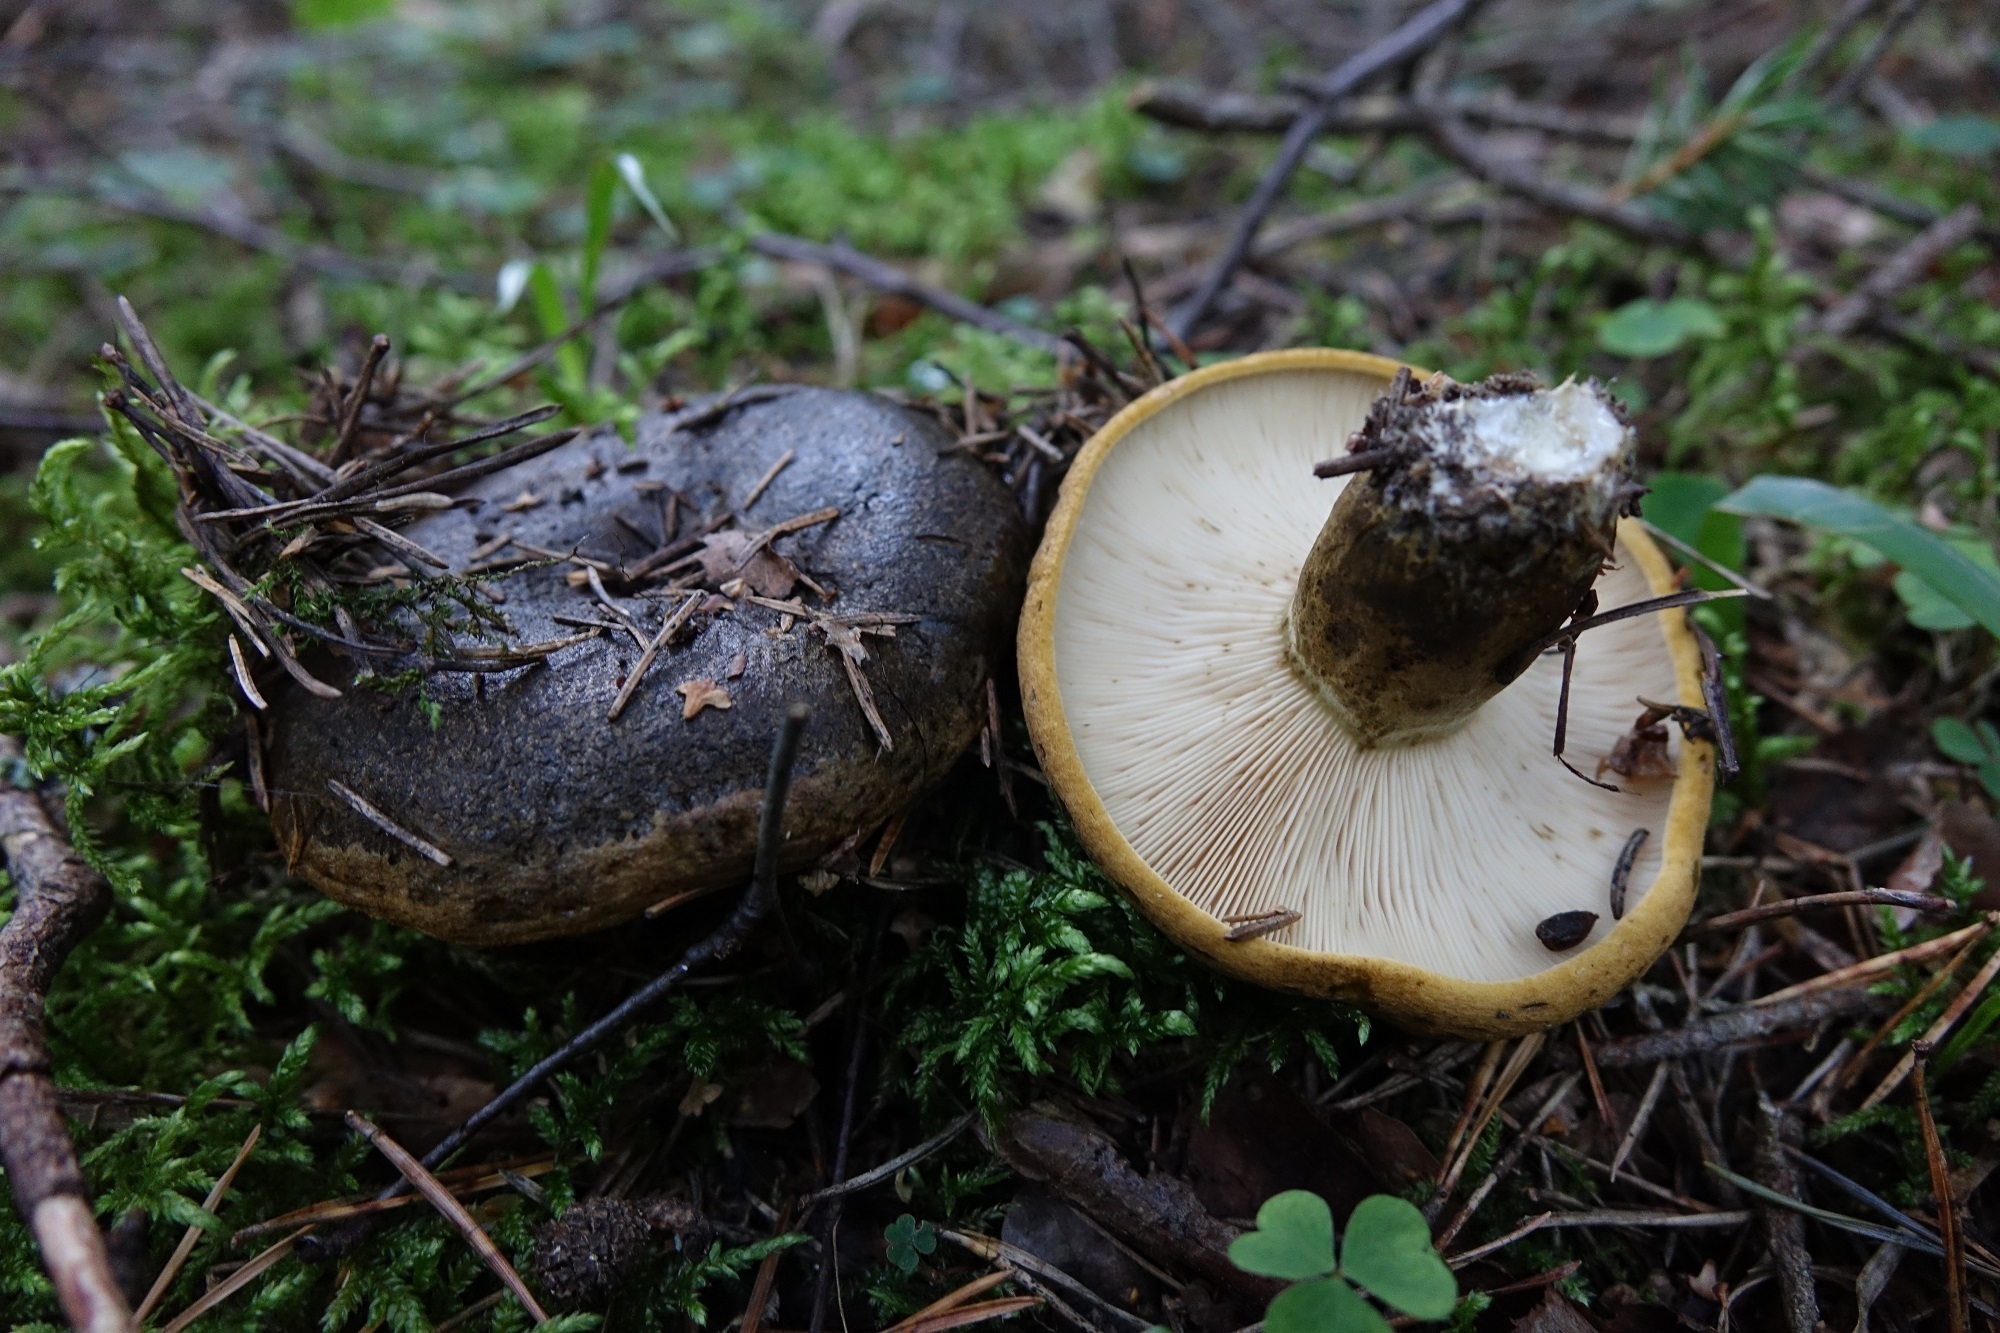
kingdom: Fungi
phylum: Basidiomycota
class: Agaricomycetes
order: Russulales
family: Russulaceae
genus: Lactarius
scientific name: Lactarius turpis
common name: Ugly milk-cap
